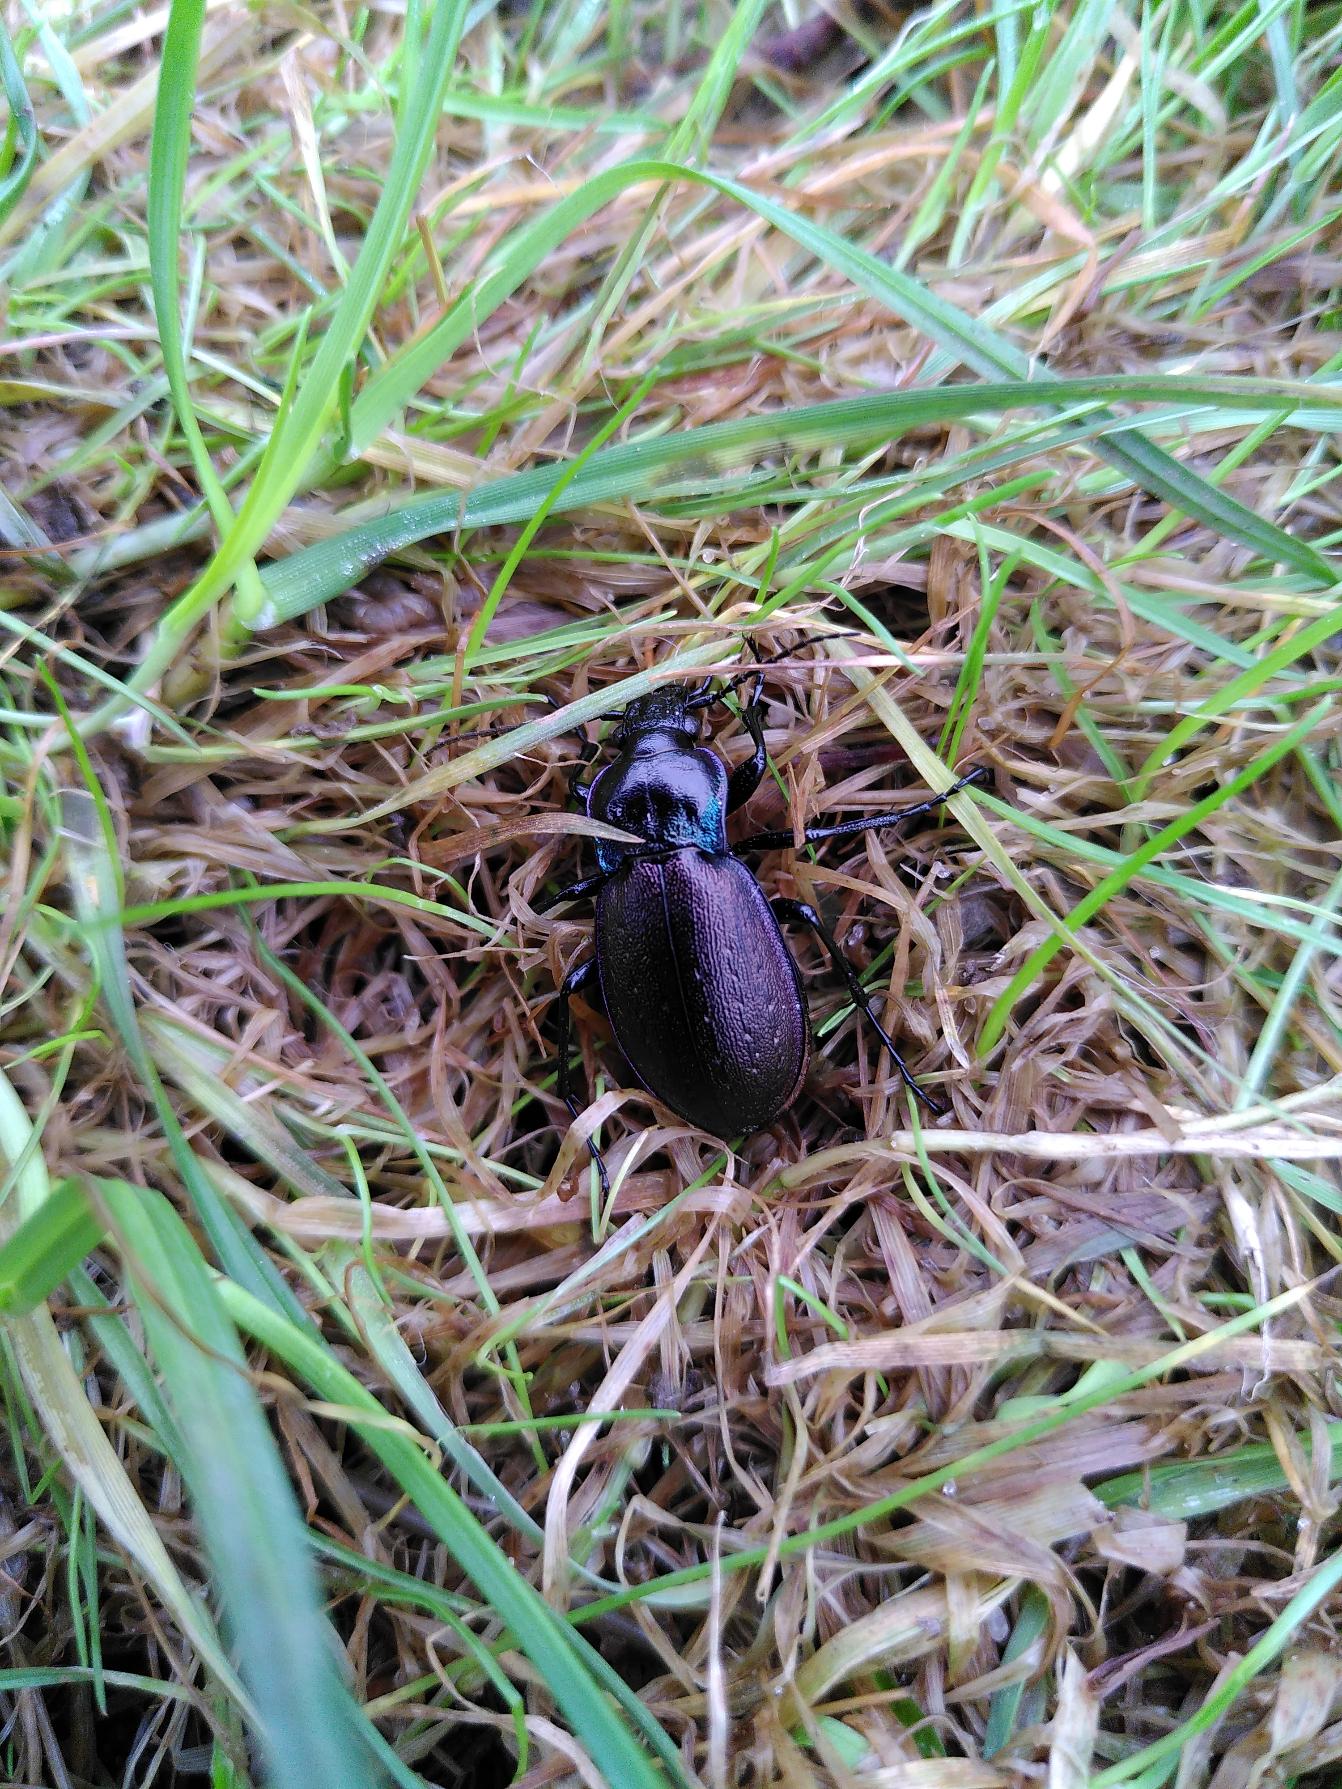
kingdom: Animalia
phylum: Arthropoda
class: Insecta
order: Coleoptera
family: Carabidae
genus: Carabus
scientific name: Carabus nemoralis
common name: Kratløber
